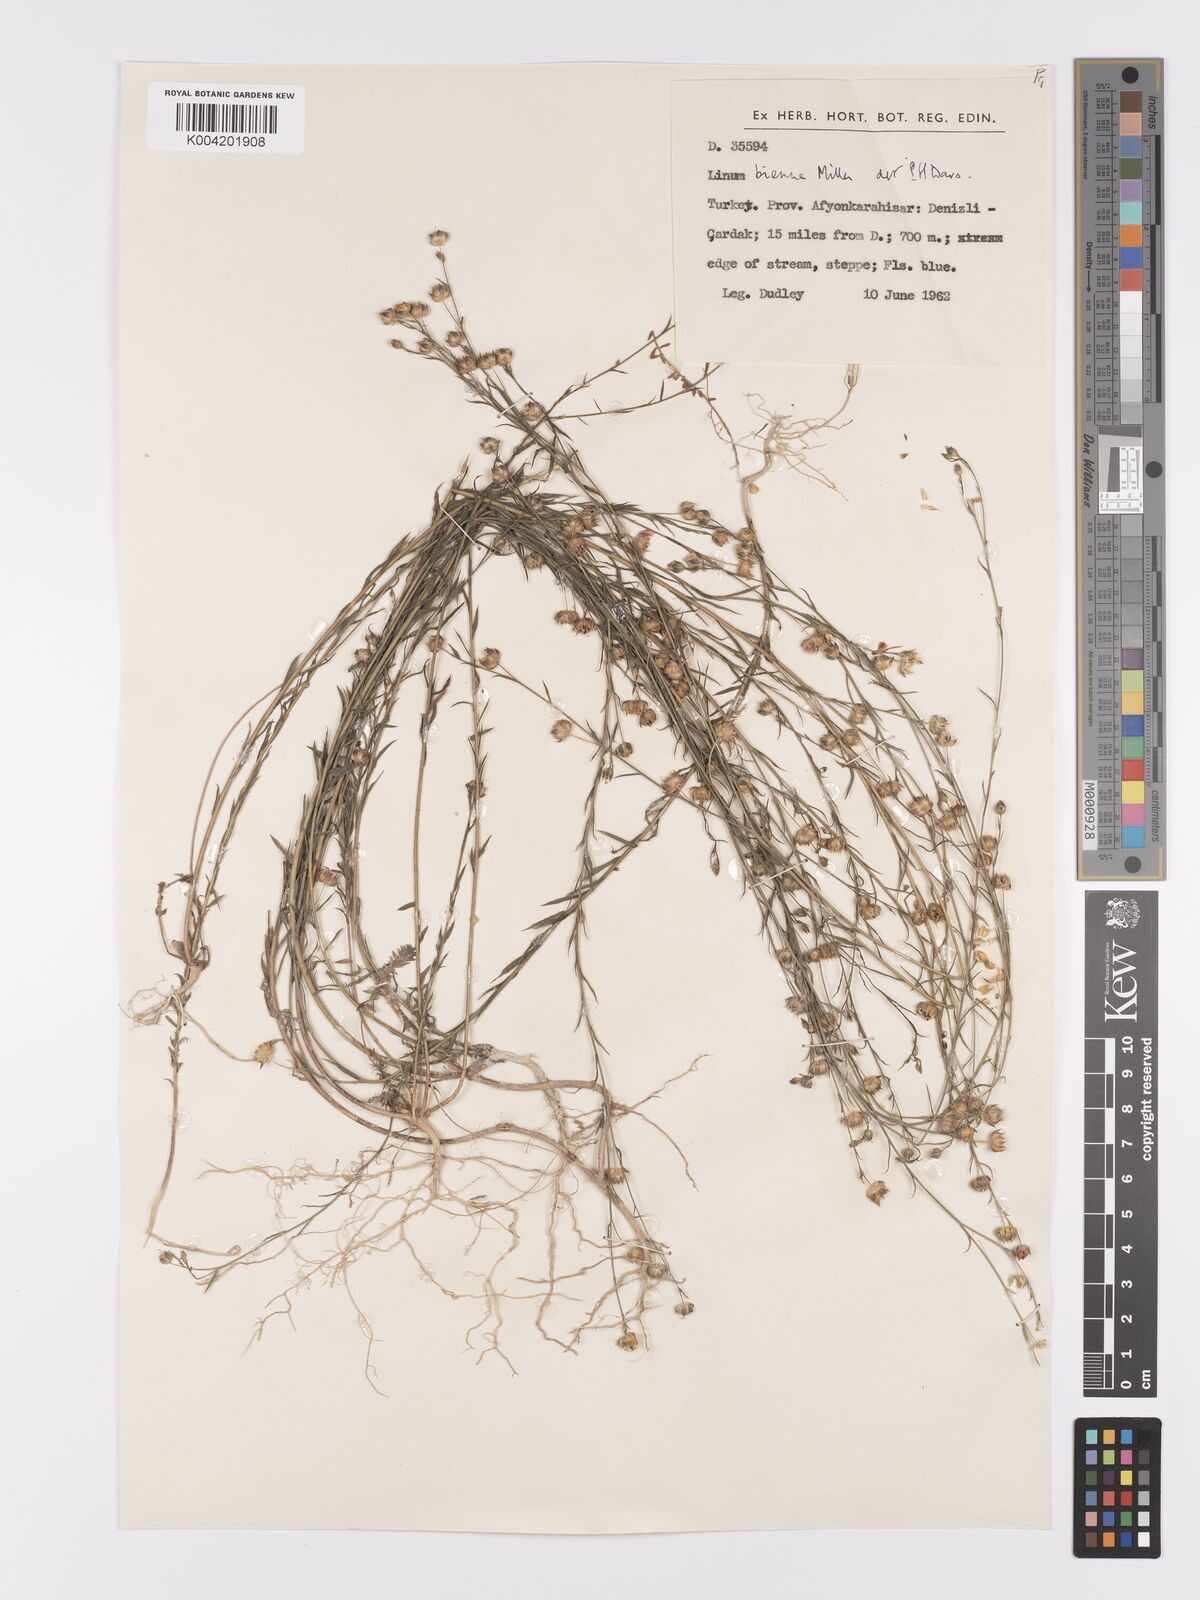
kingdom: Plantae
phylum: Tracheophyta
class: Magnoliopsida
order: Malpighiales
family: Linaceae
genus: Linum
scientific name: Linum
